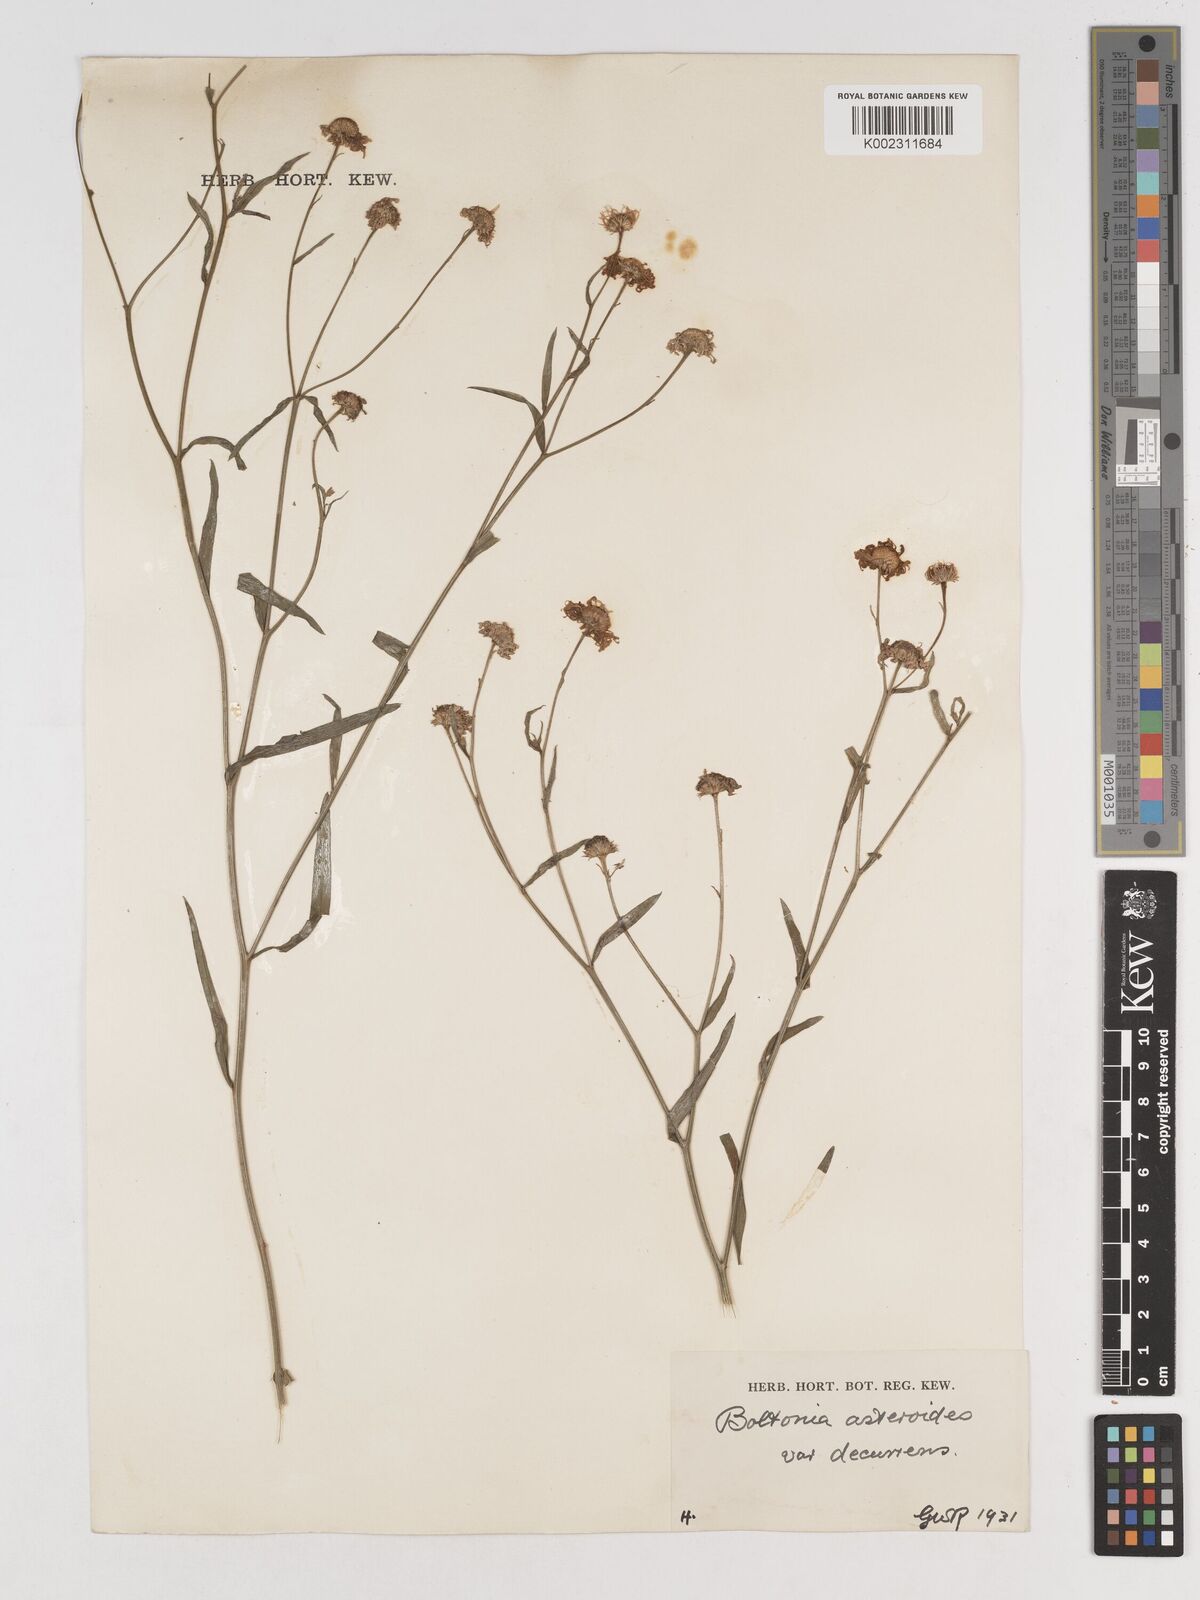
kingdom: Plantae
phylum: Tracheophyta
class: Magnoliopsida
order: Asterales
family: Asteraceae
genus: Boltonia
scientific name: Boltonia diffusa
